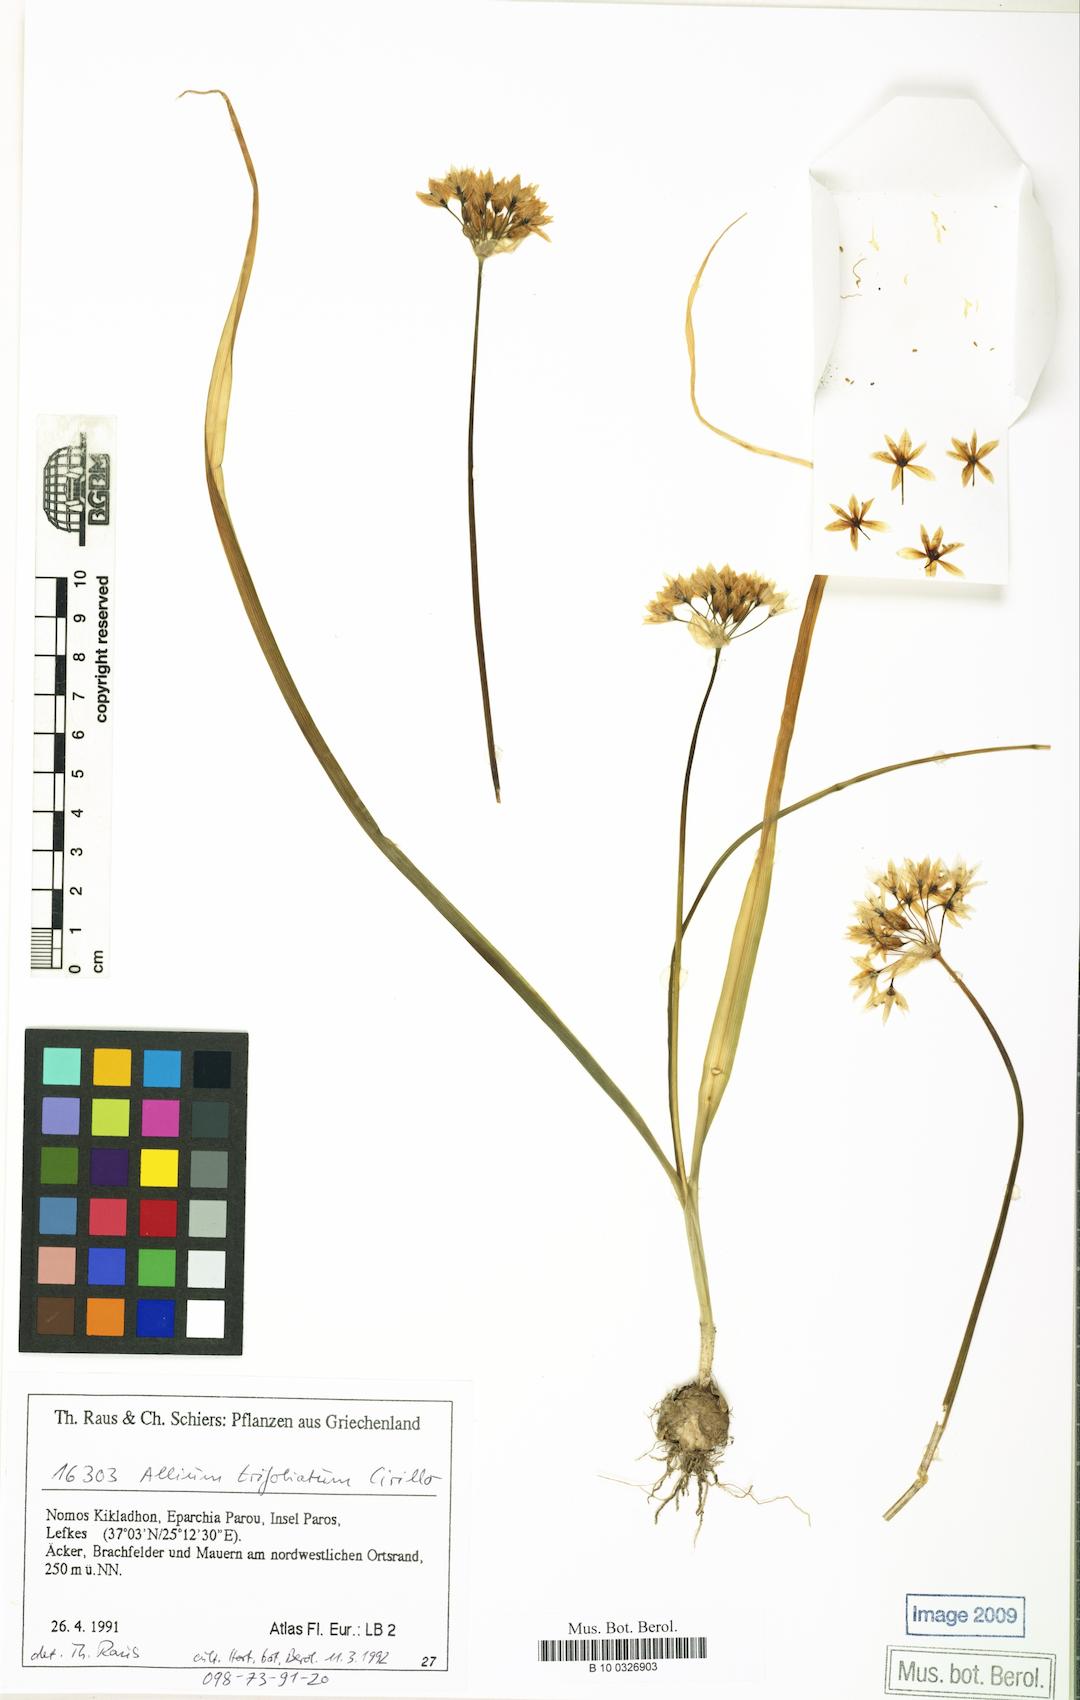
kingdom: Plantae
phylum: Tracheophyta
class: Liliopsida
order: Asparagales
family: Amaryllidaceae
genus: Allium
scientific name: Allium trifoliatum
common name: Pink garlic
